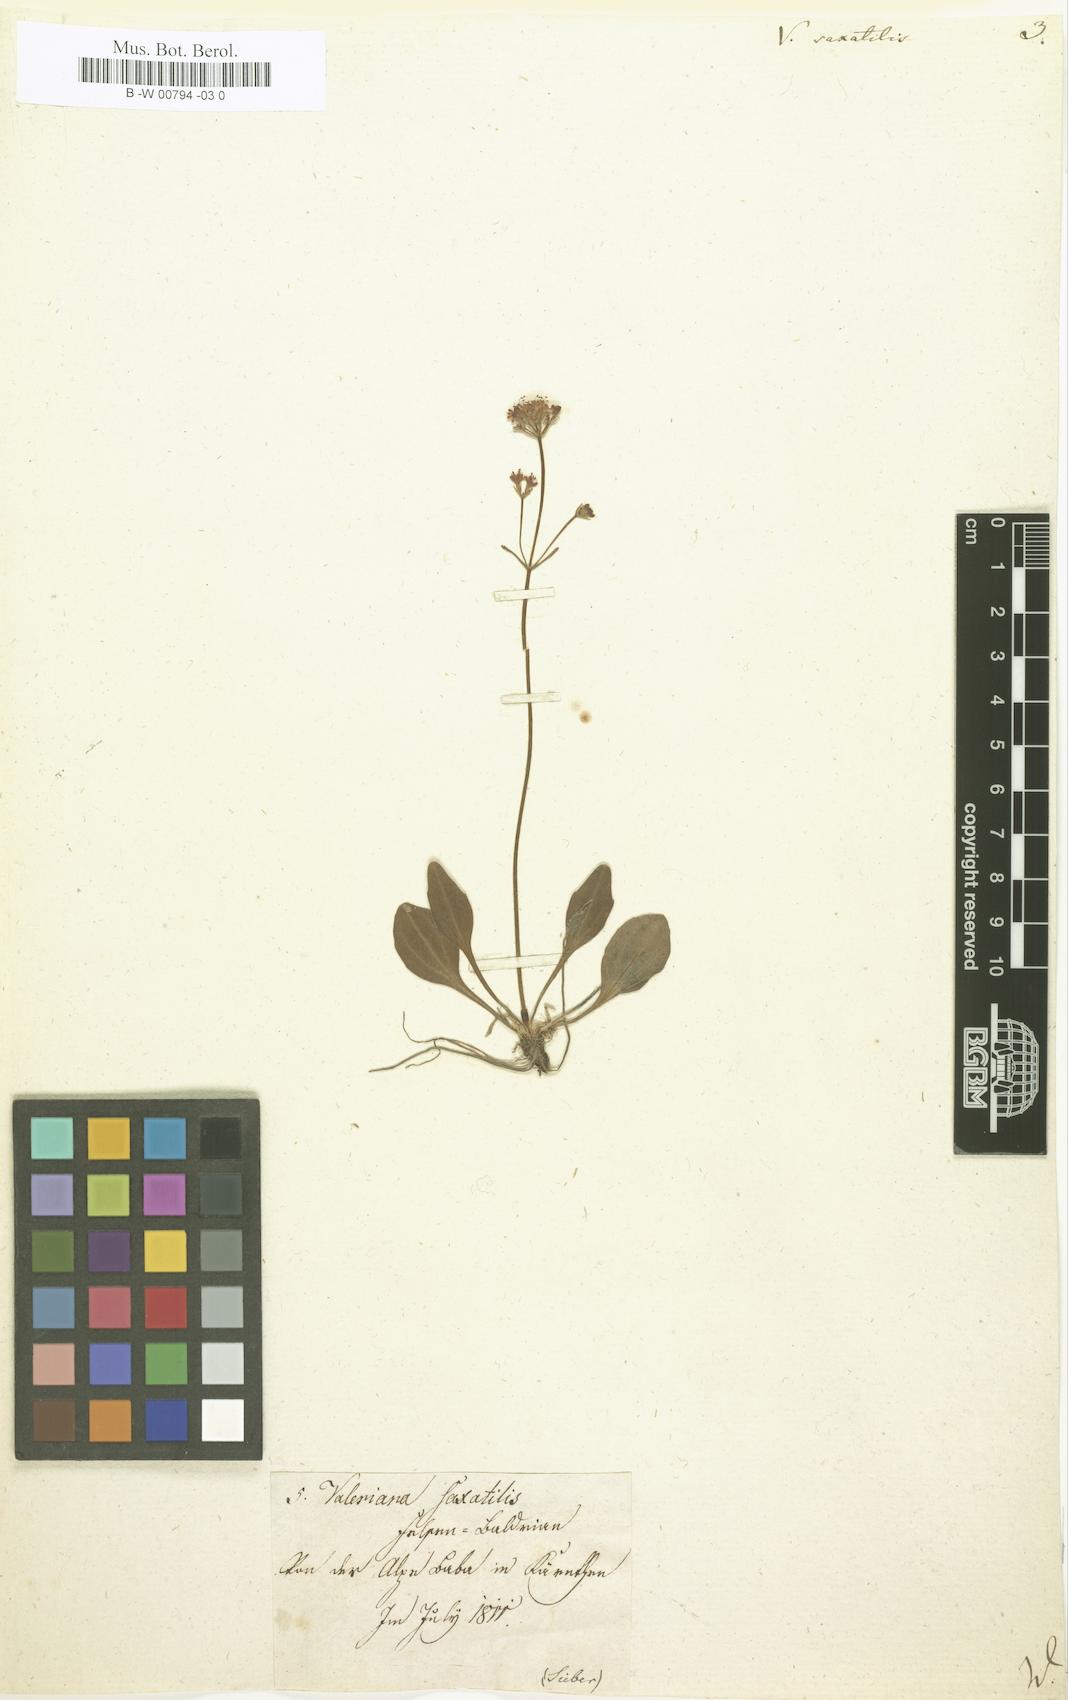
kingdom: Plantae
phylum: Tracheophyta
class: Magnoliopsida
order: Dipsacales
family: Caprifoliaceae
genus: Valeriana
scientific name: Valeriana saxatilis
